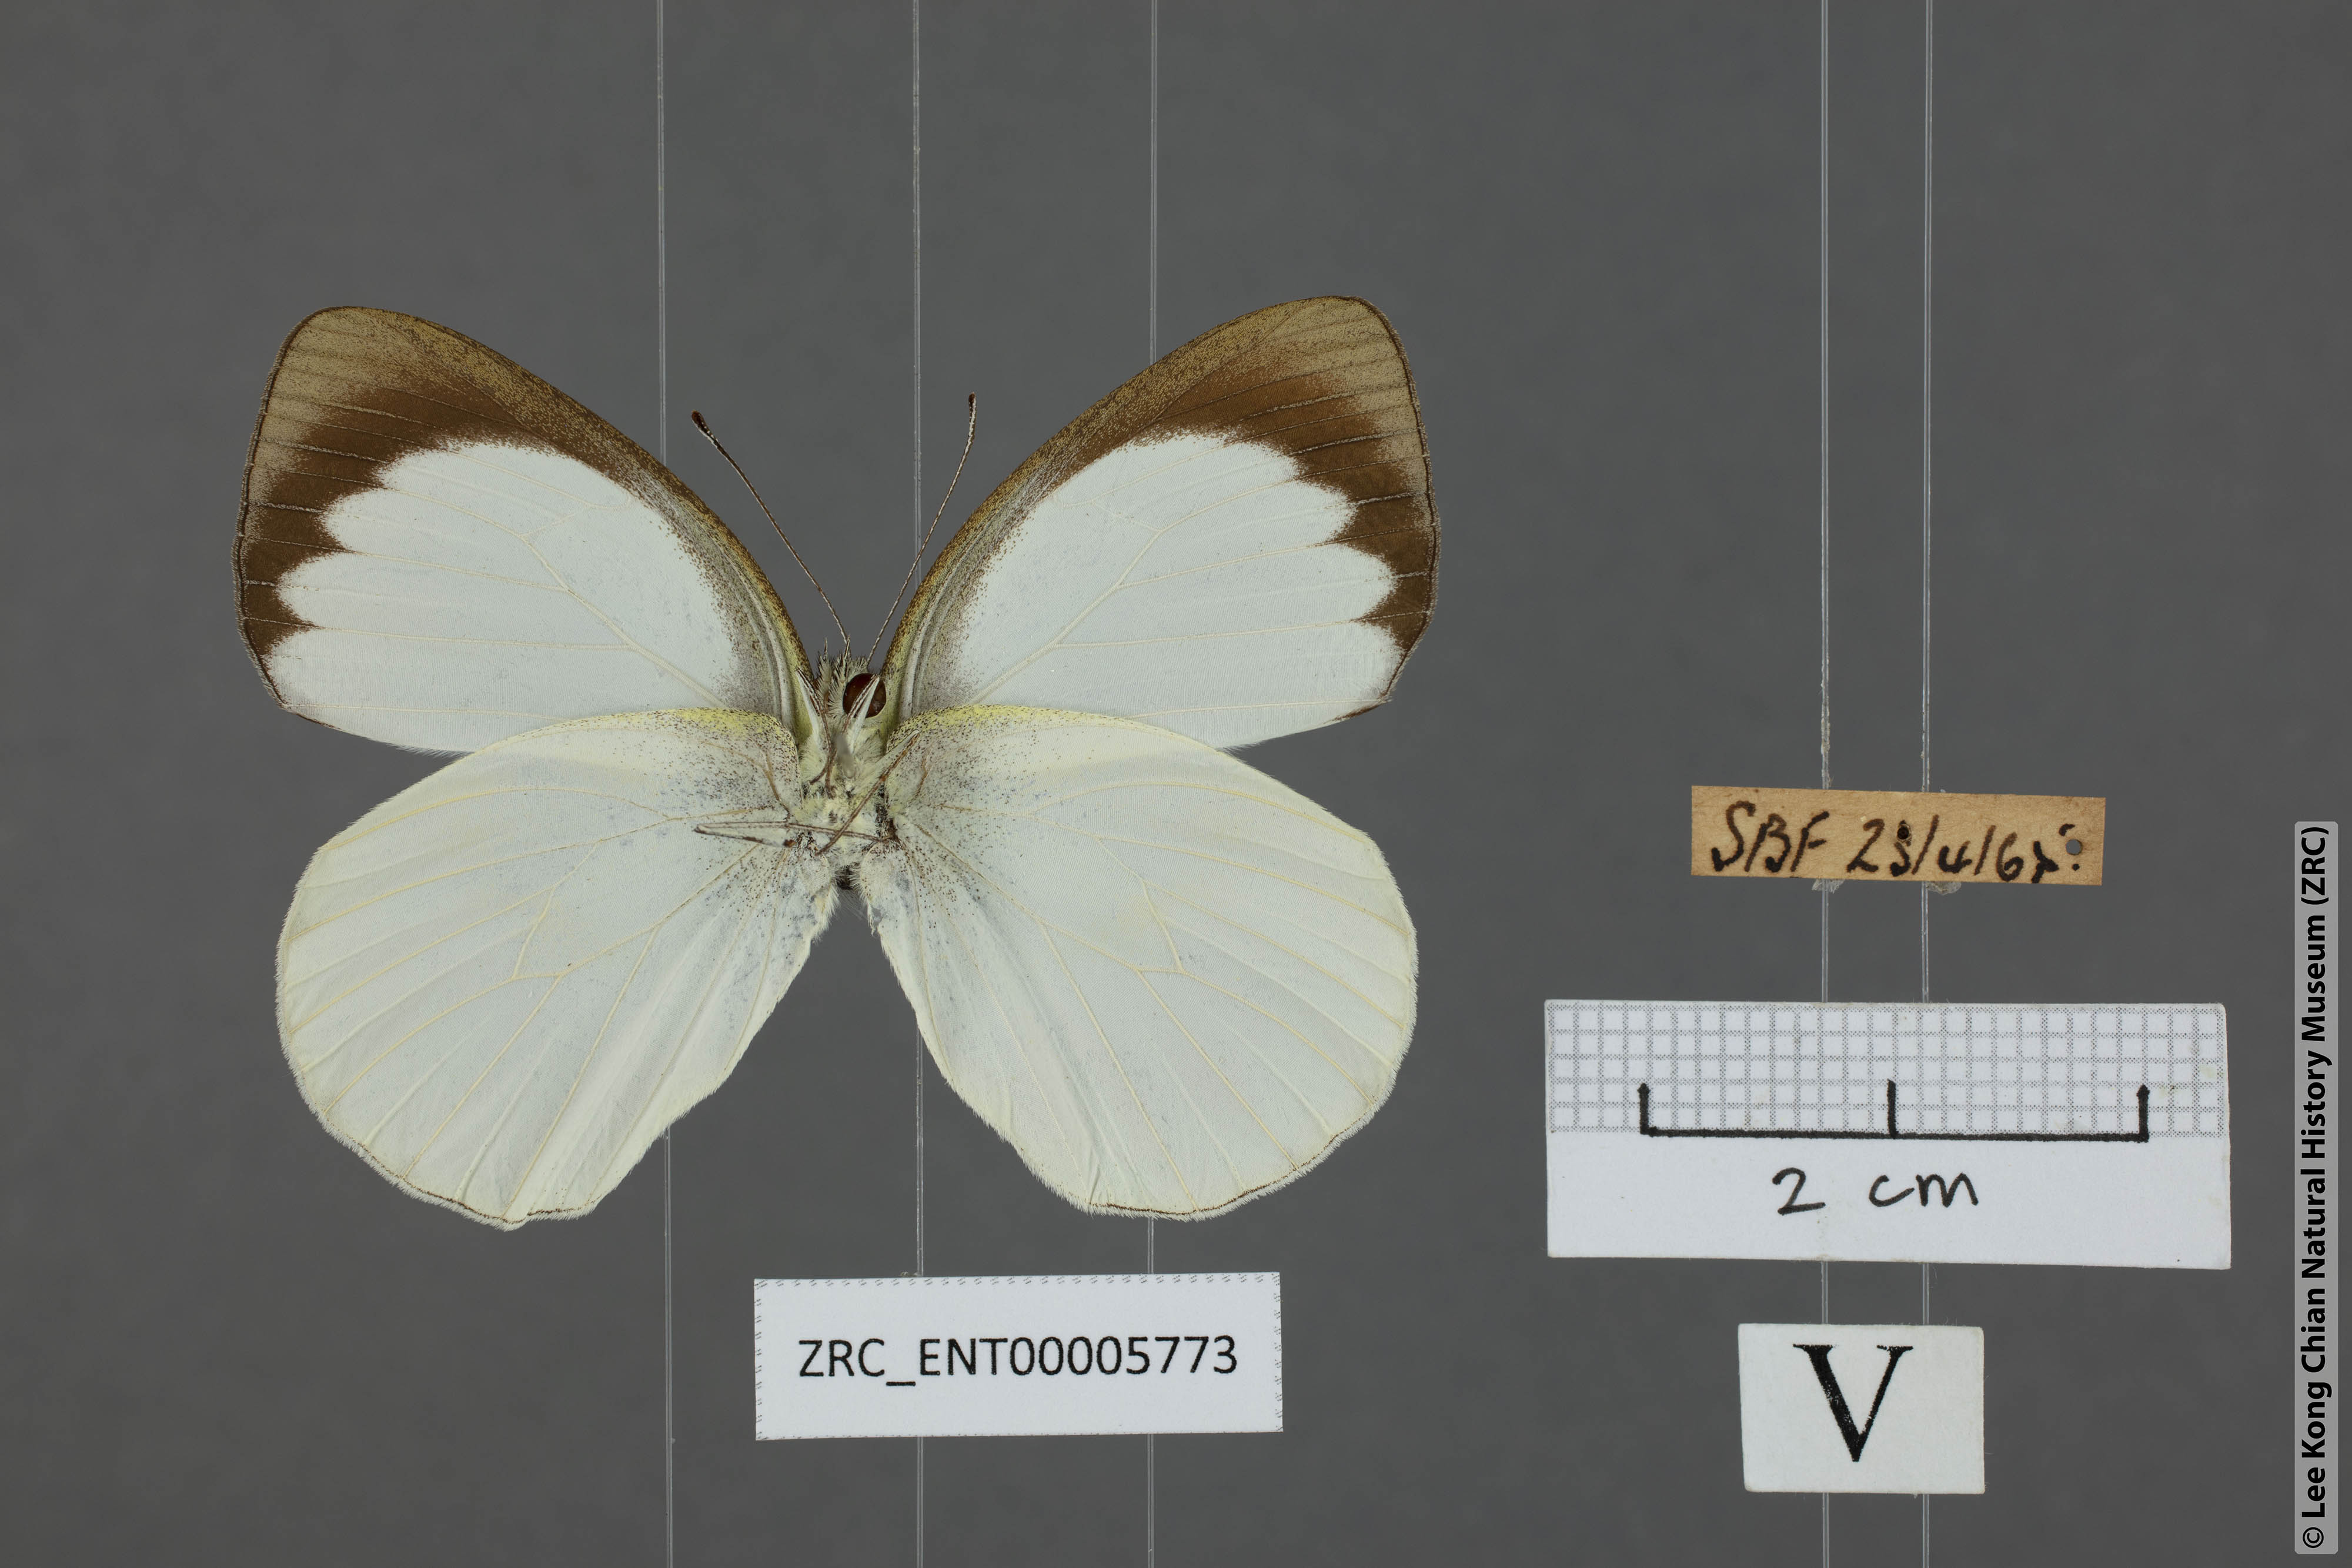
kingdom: Animalia
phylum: Arthropoda
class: Insecta
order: Lepidoptera
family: Pieridae
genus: Phrissura
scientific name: Phrissura aegis
